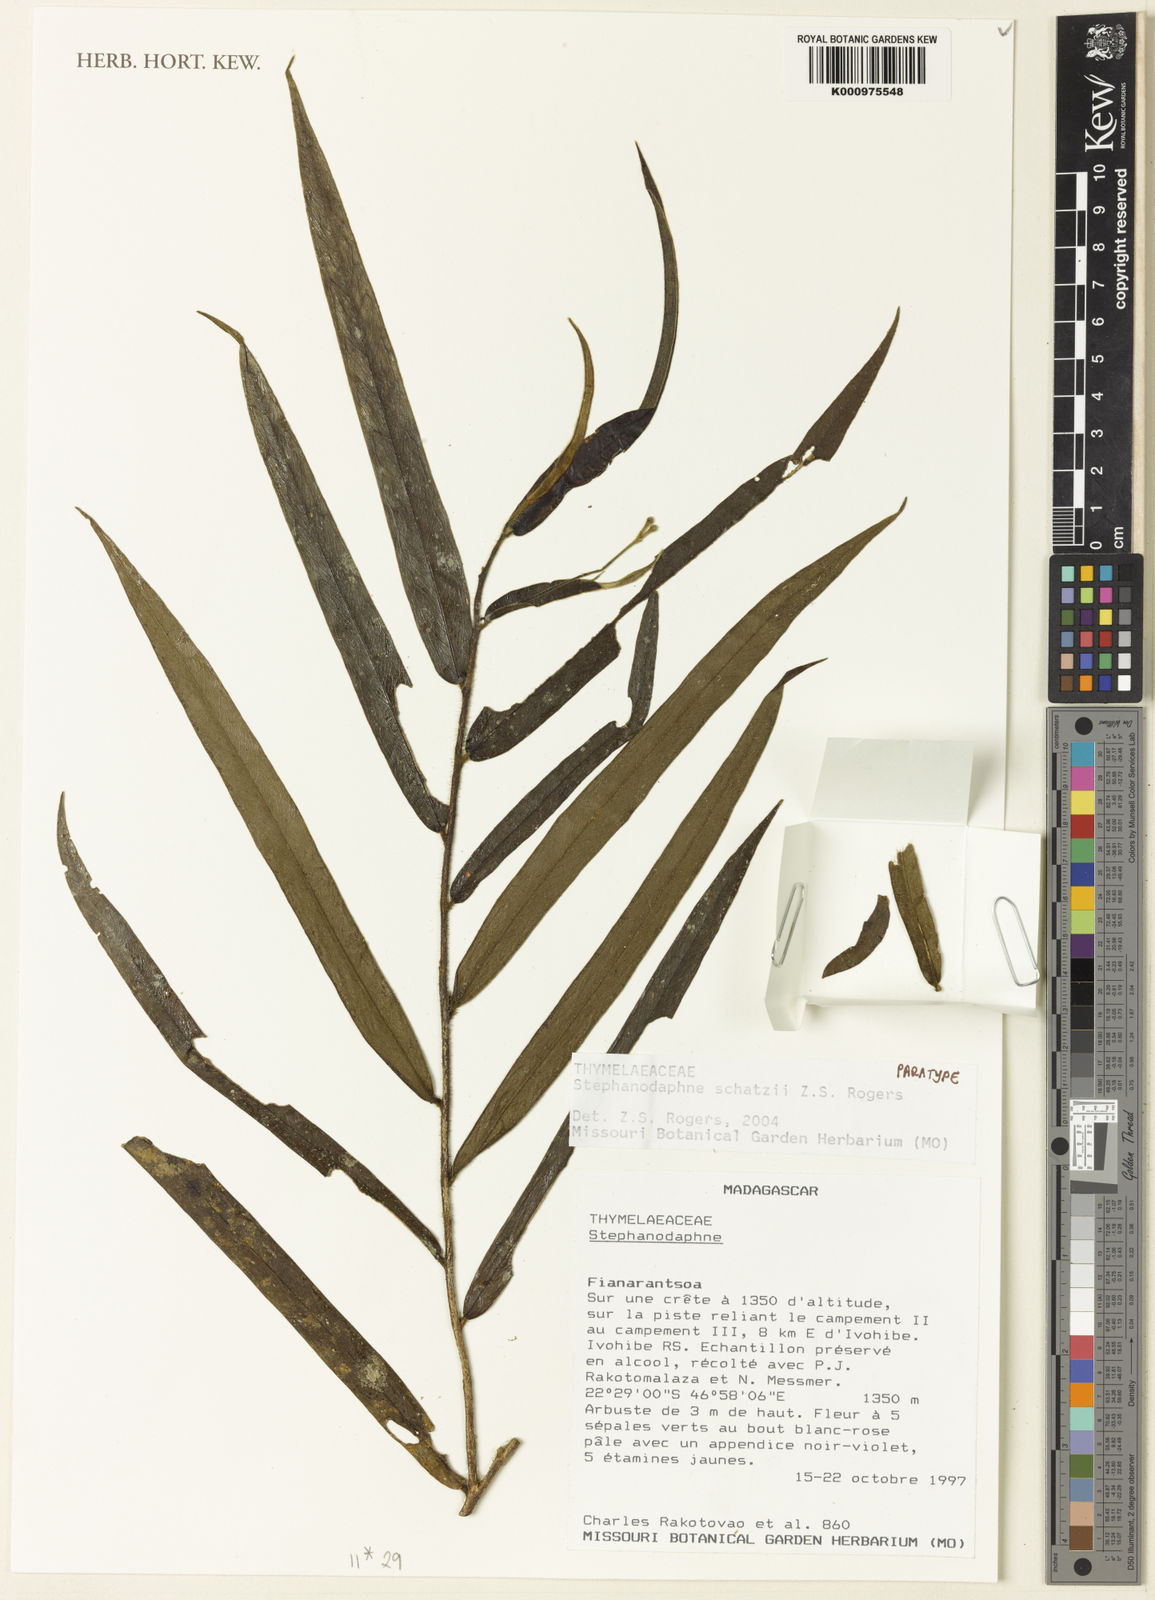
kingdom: Plantae
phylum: Tracheophyta
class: Magnoliopsida
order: Malvales
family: Thymelaeaceae
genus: Stephanodaphne
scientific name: Stephanodaphne schatzii
